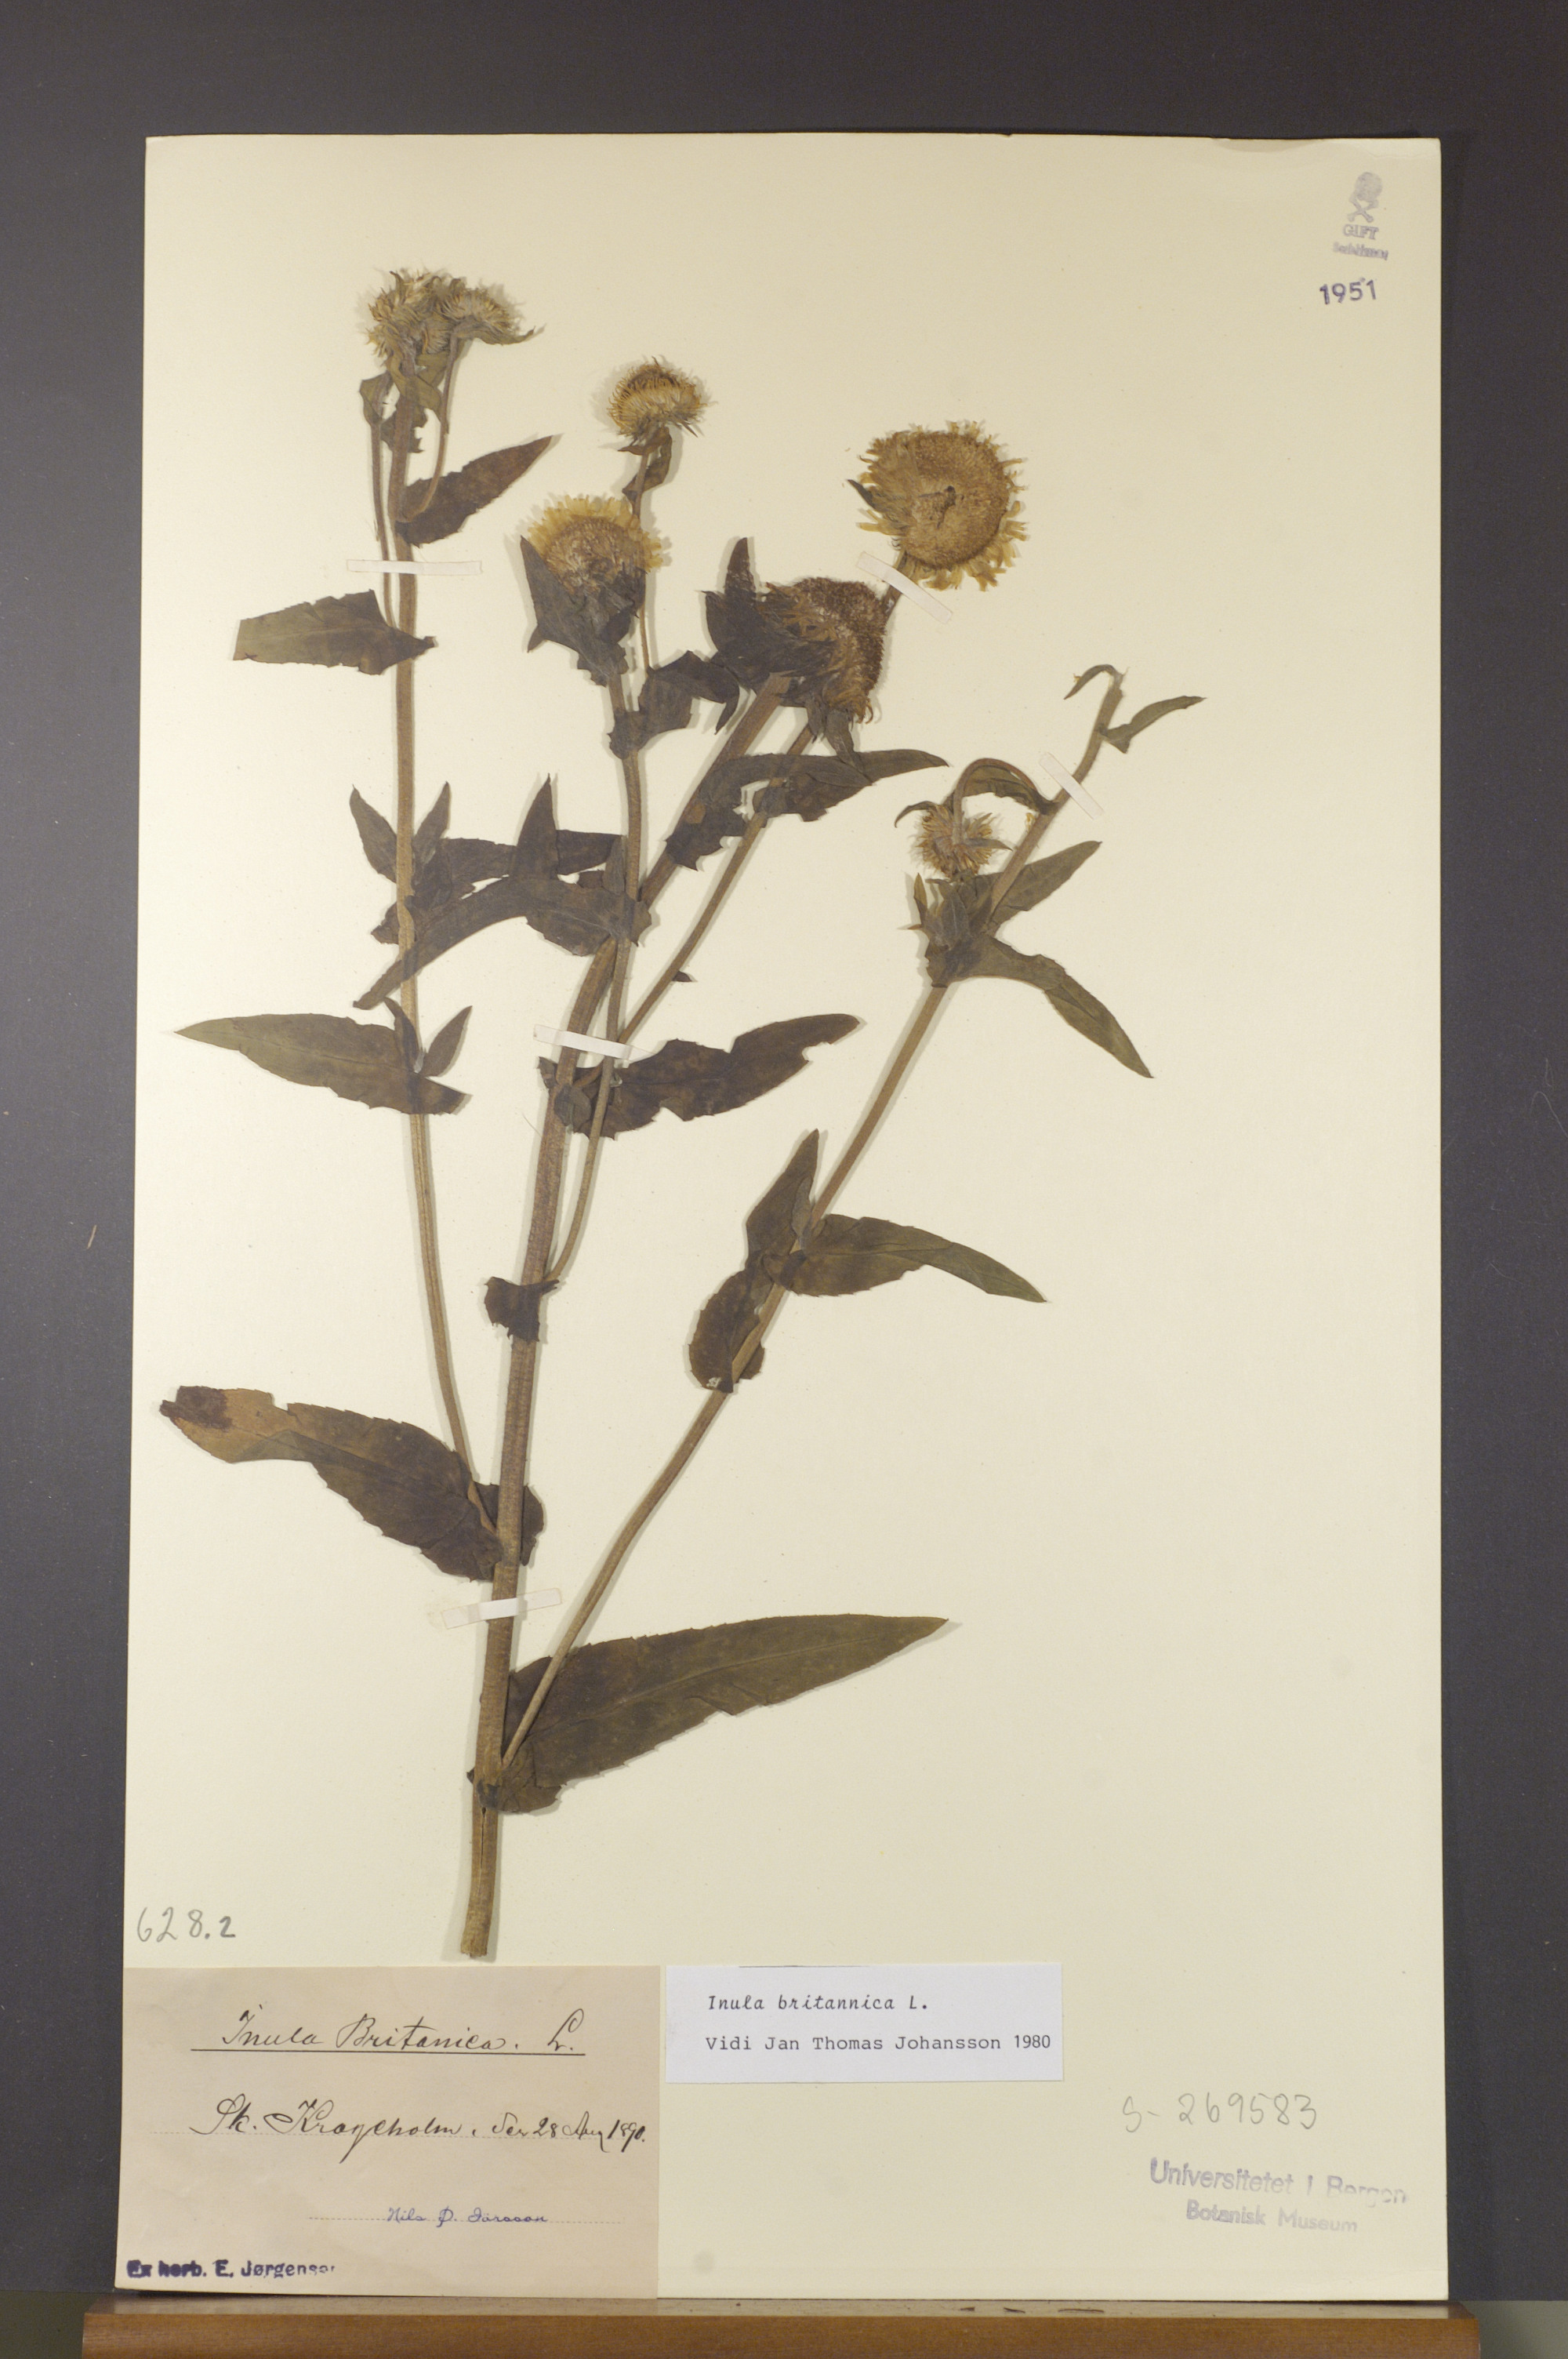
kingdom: Plantae
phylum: Tracheophyta
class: Magnoliopsida
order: Asterales
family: Asteraceae
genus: Pentanema
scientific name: Pentanema britannicum
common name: British elecampane
